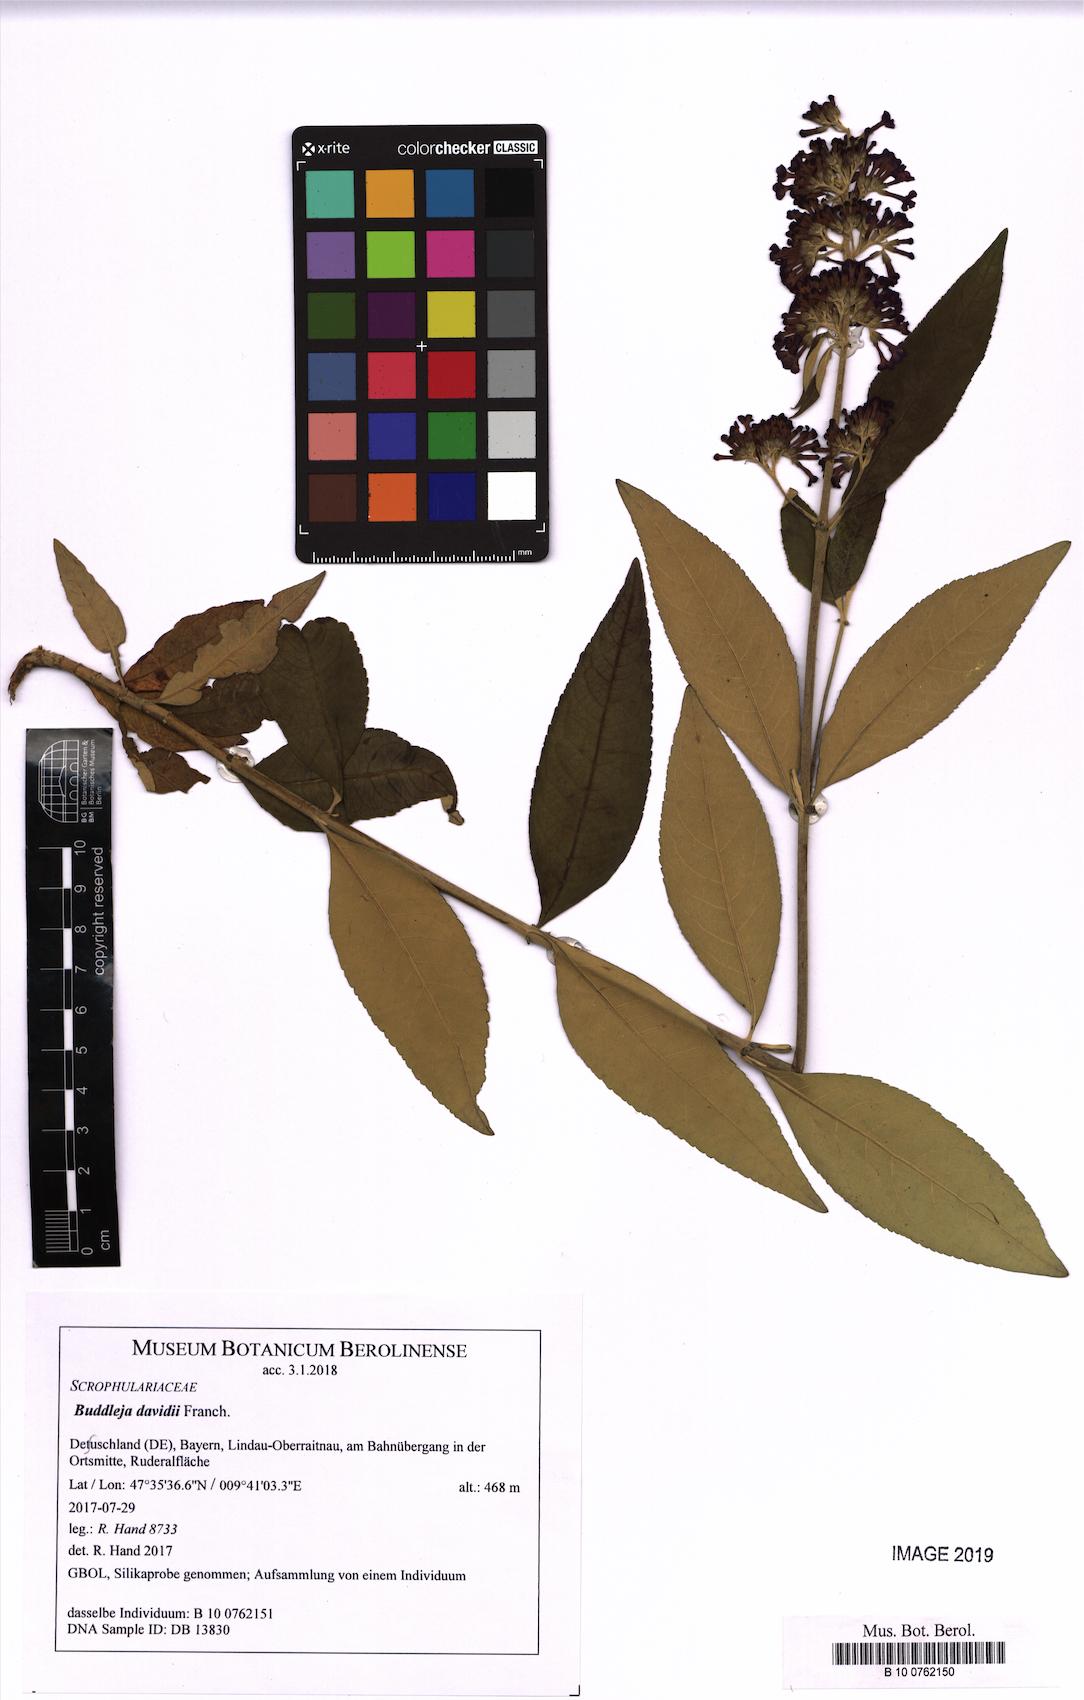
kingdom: Plantae
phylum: Tracheophyta
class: Magnoliopsida
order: Lamiales
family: Scrophulariaceae
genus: Buddleja
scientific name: Buddleja davidii
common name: Butterfly-bush
